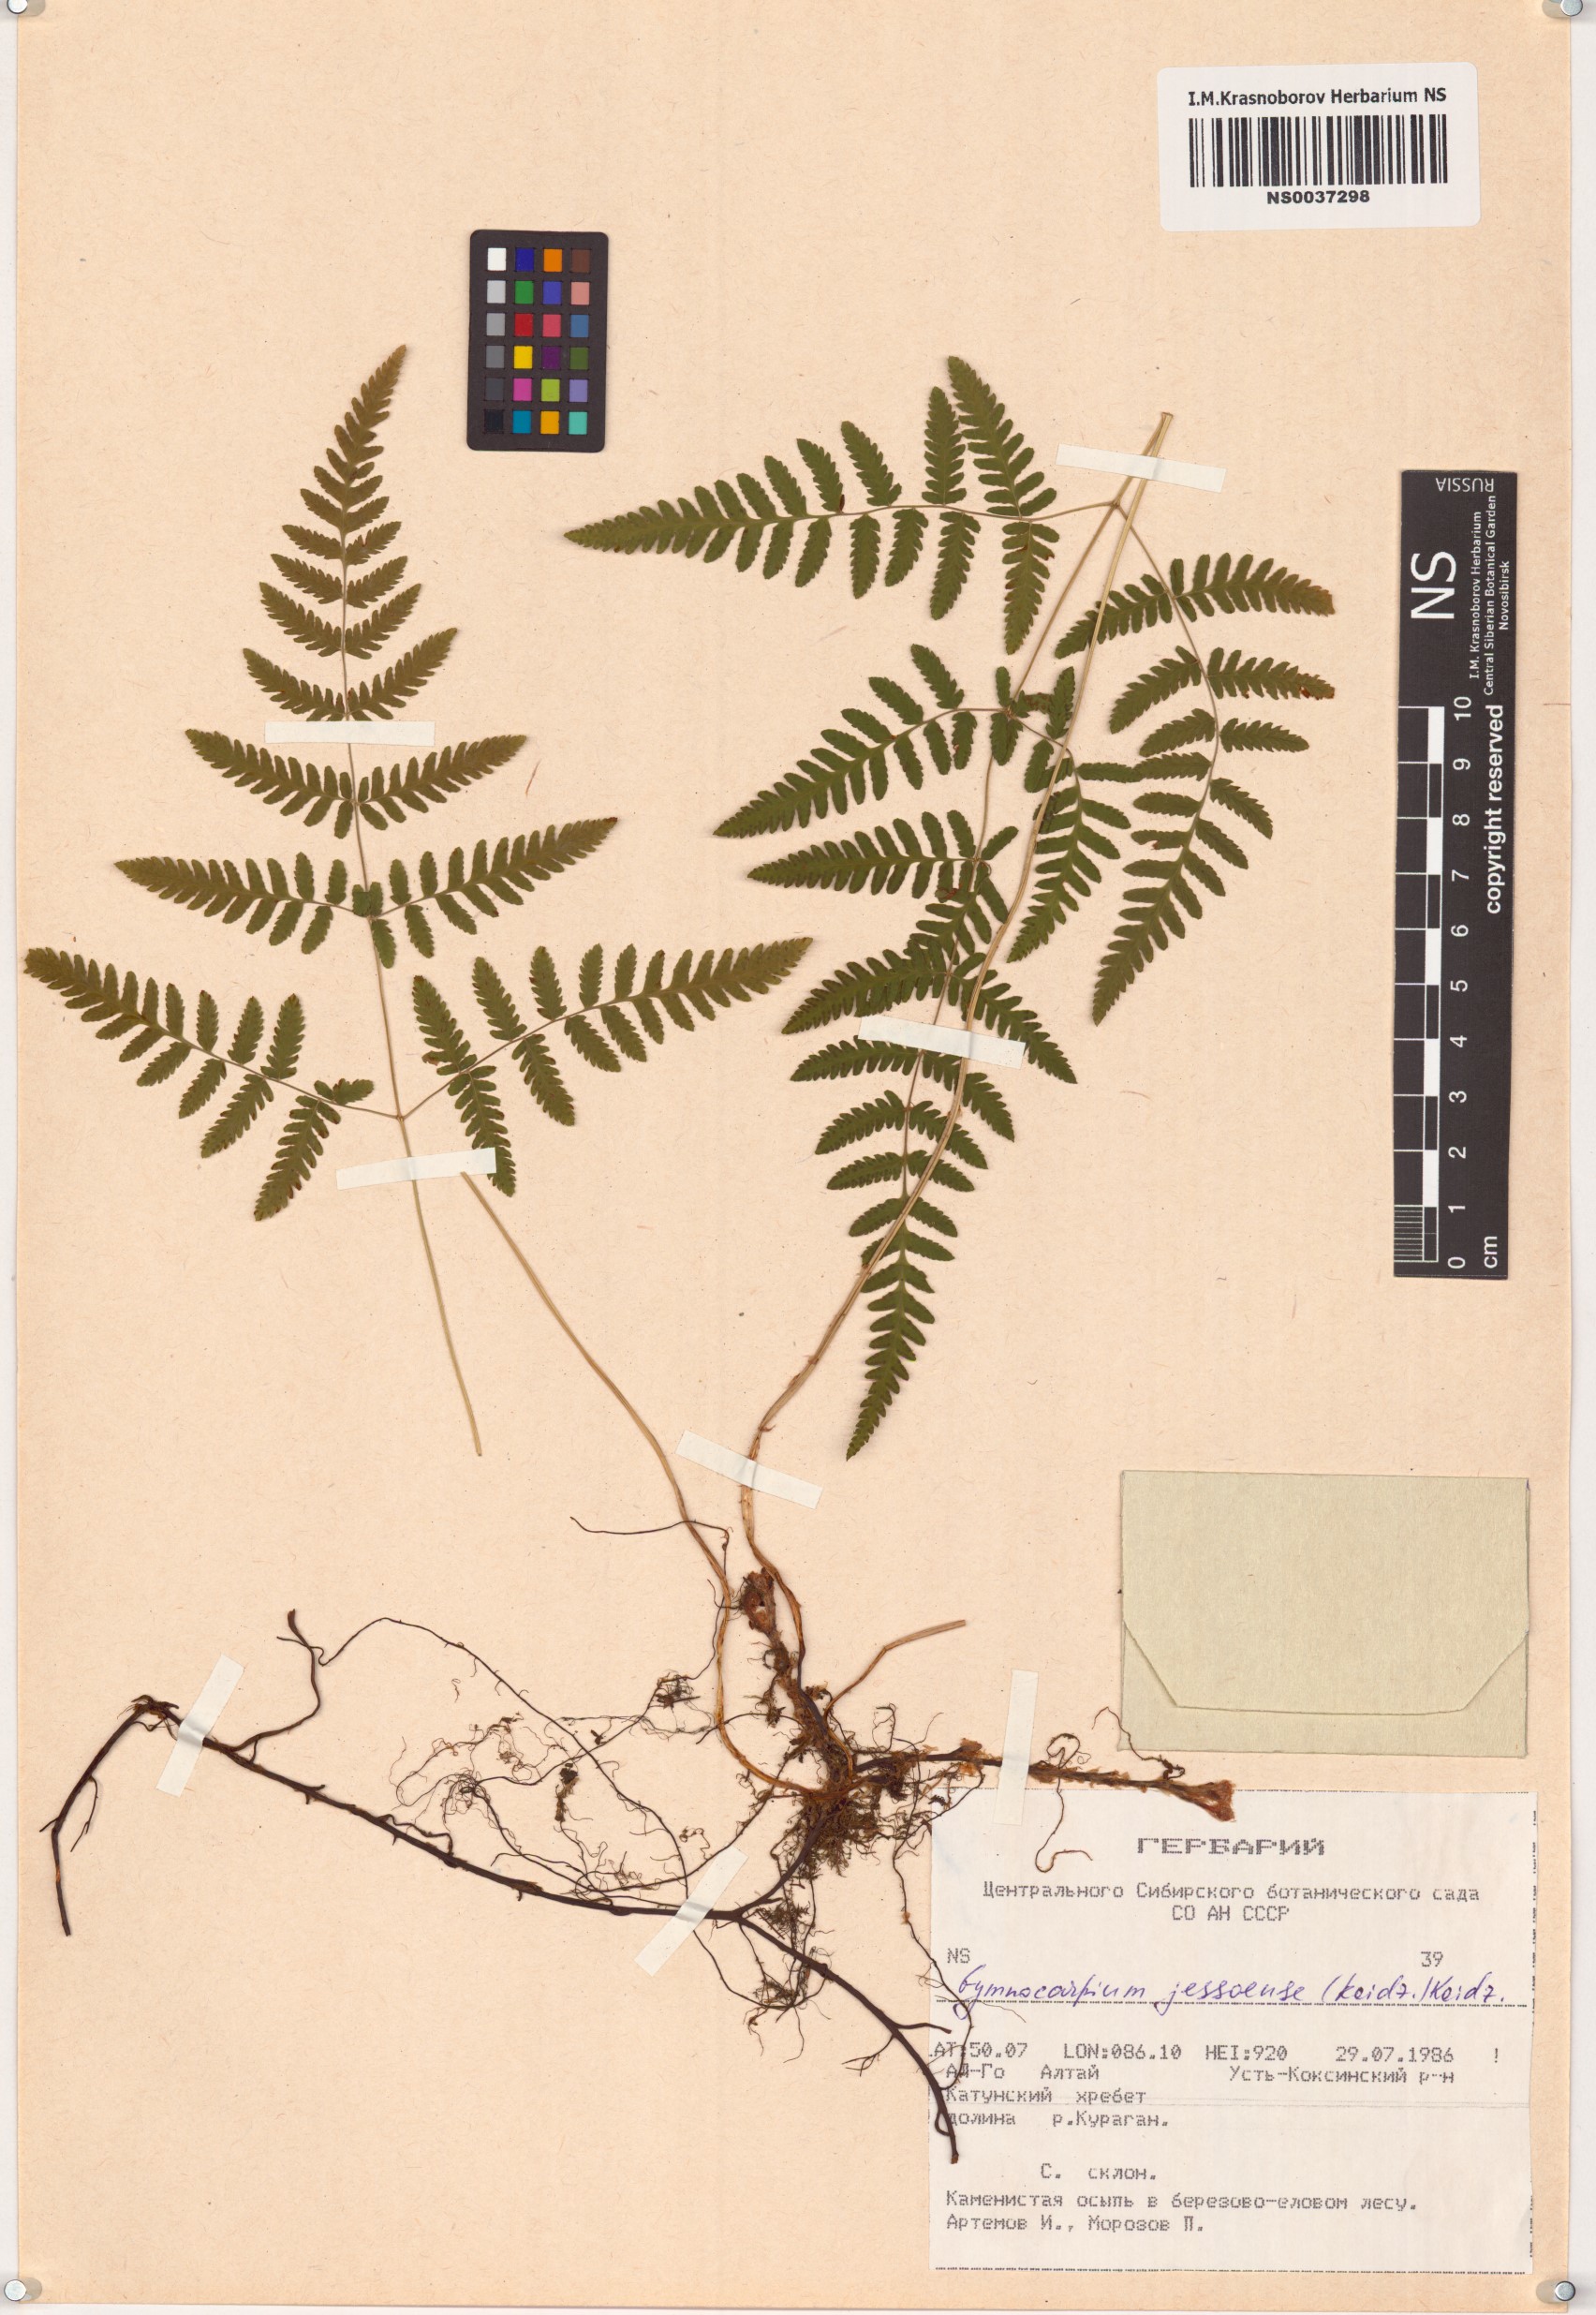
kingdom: Plantae
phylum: Tracheophyta
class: Polypodiopsida
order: Polypodiales
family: Cystopteridaceae
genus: Gymnocarpium
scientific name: Gymnocarpium jessoense
